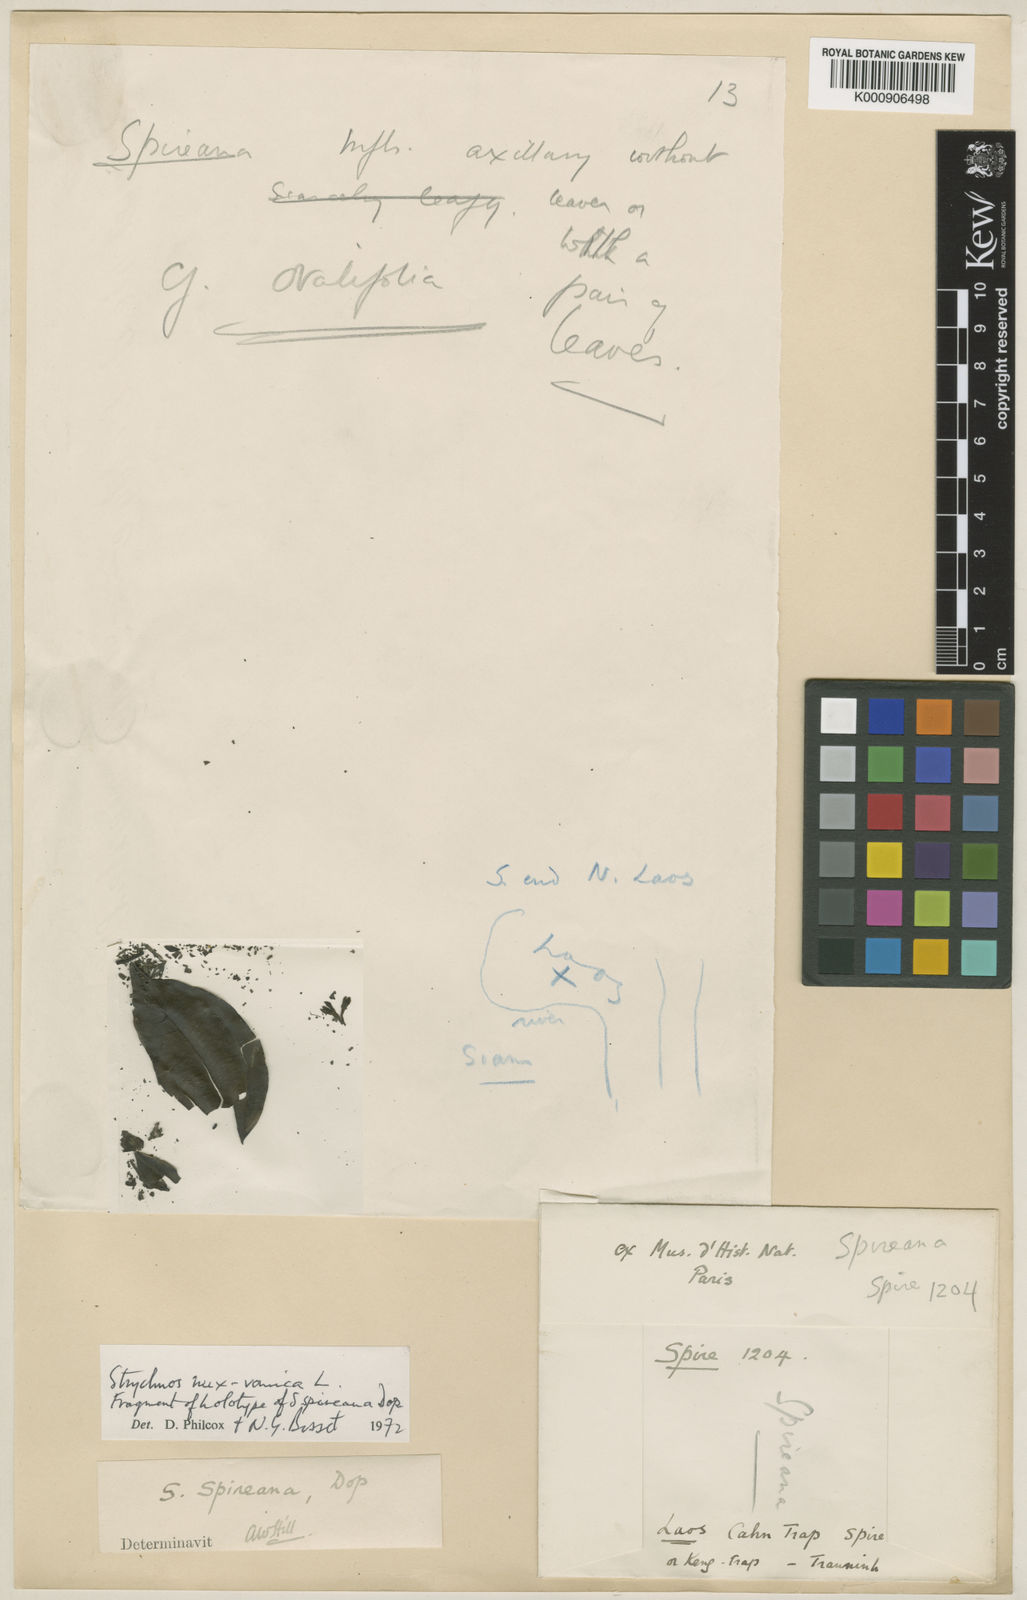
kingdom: Plantae
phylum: Tracheophyta
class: Magnoliopsida
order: Gentianales
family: Loganiaceae
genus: Strychnos
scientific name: Strychnos nux-vomica
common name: Strychninetree
